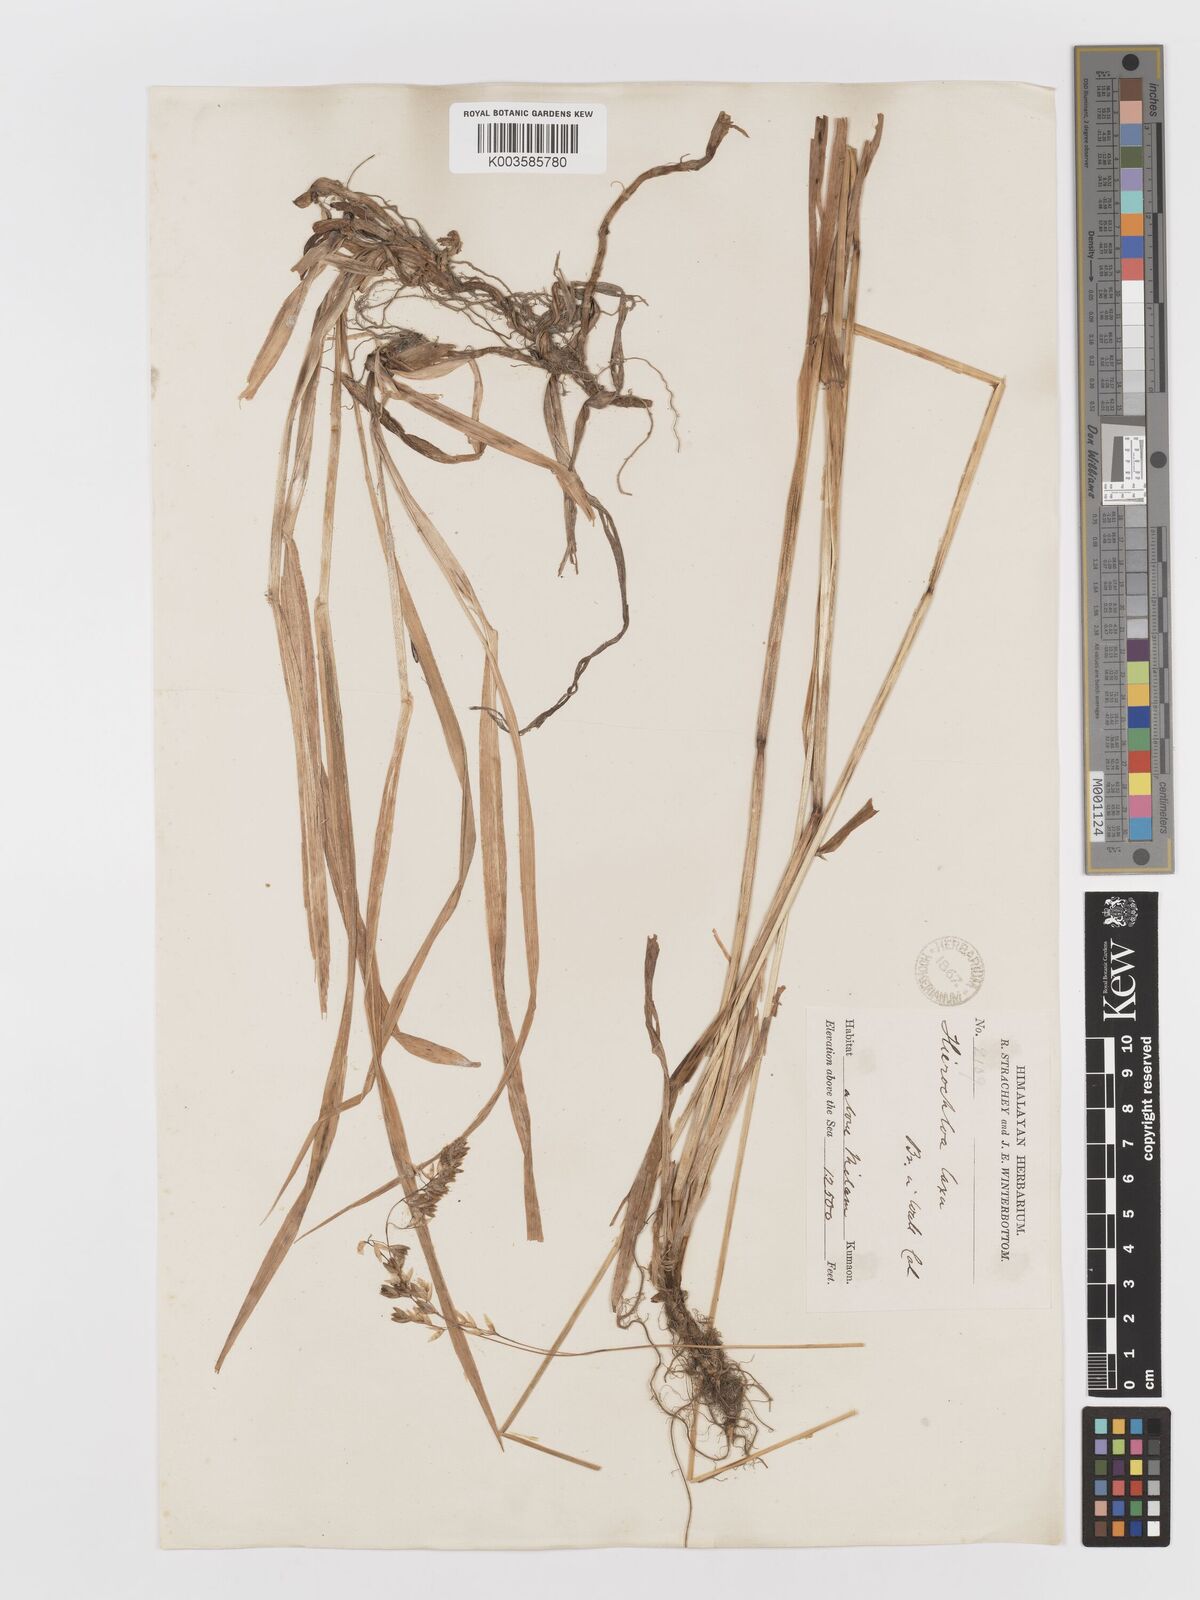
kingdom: Plantae
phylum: Tracheophyta
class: Liliopsida
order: Poales
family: Poaceae
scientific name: Poaceae
